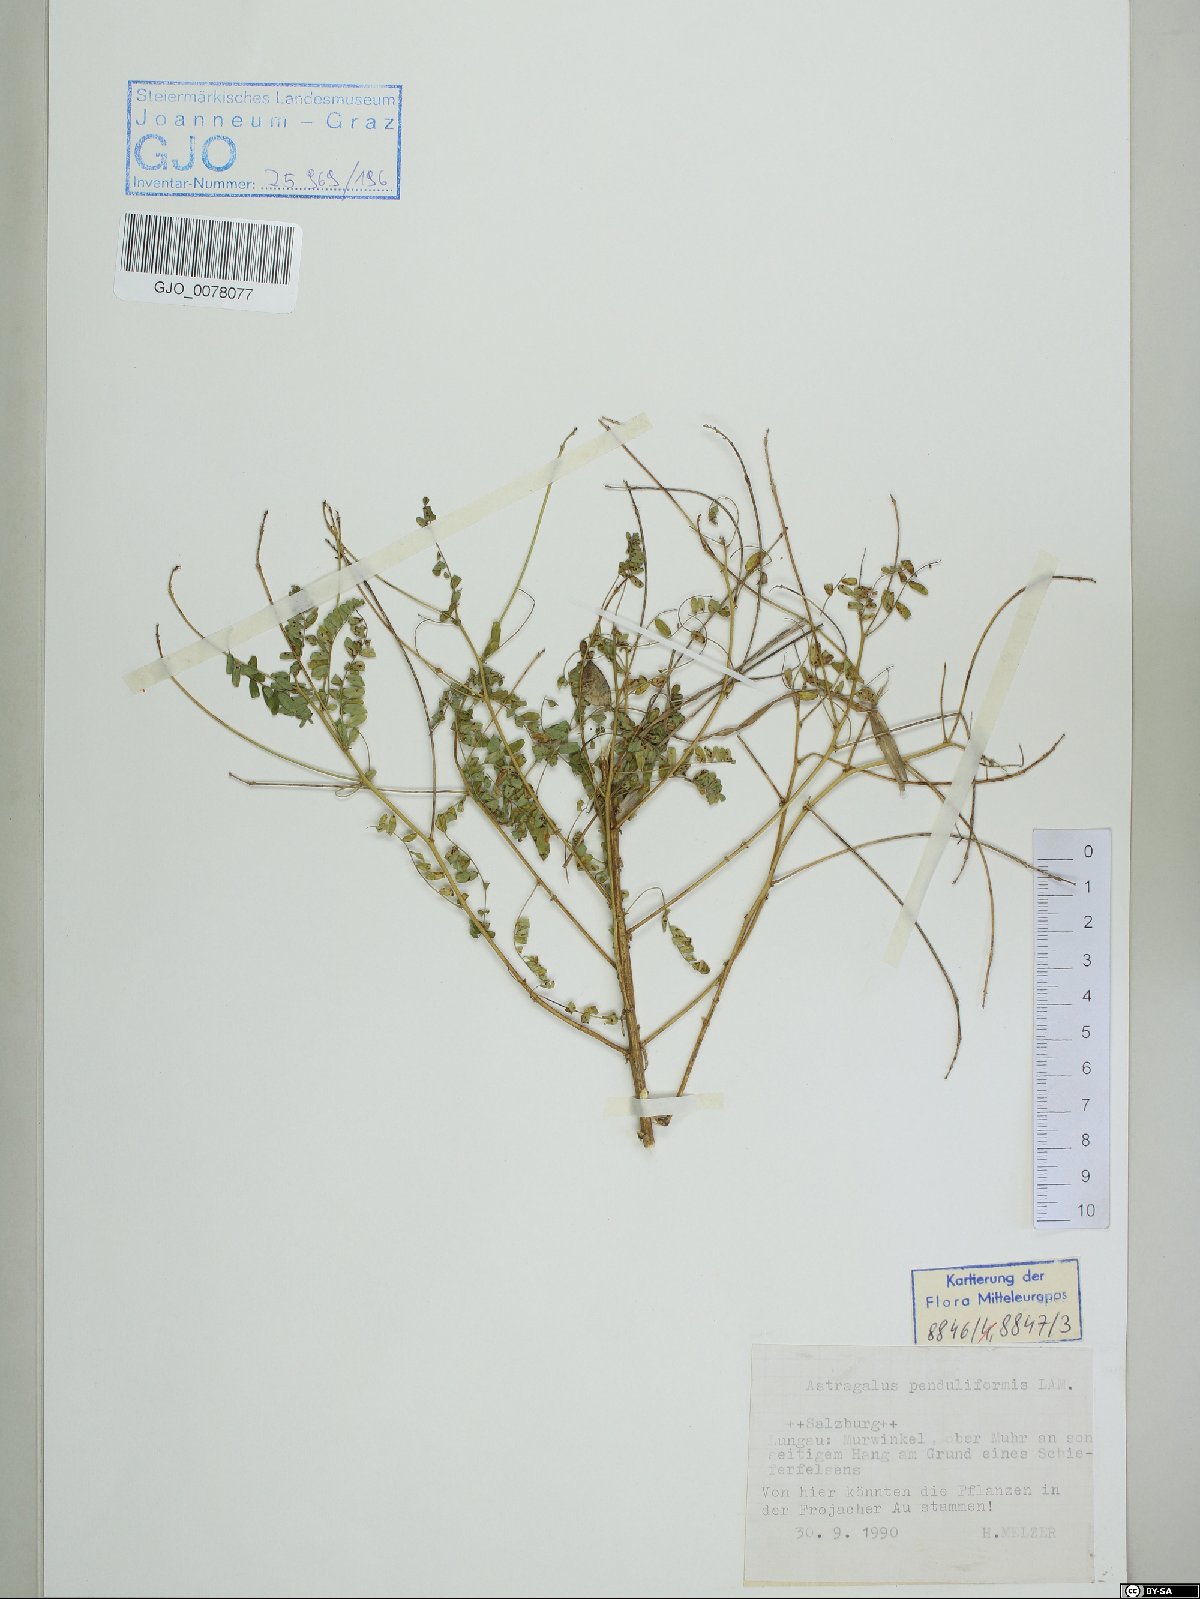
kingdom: Plantae
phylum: Tracheophyta
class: Magnoliopsida
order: Fabales
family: Fabaceae
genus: Astragalus
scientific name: Astragalus penduliflorus
